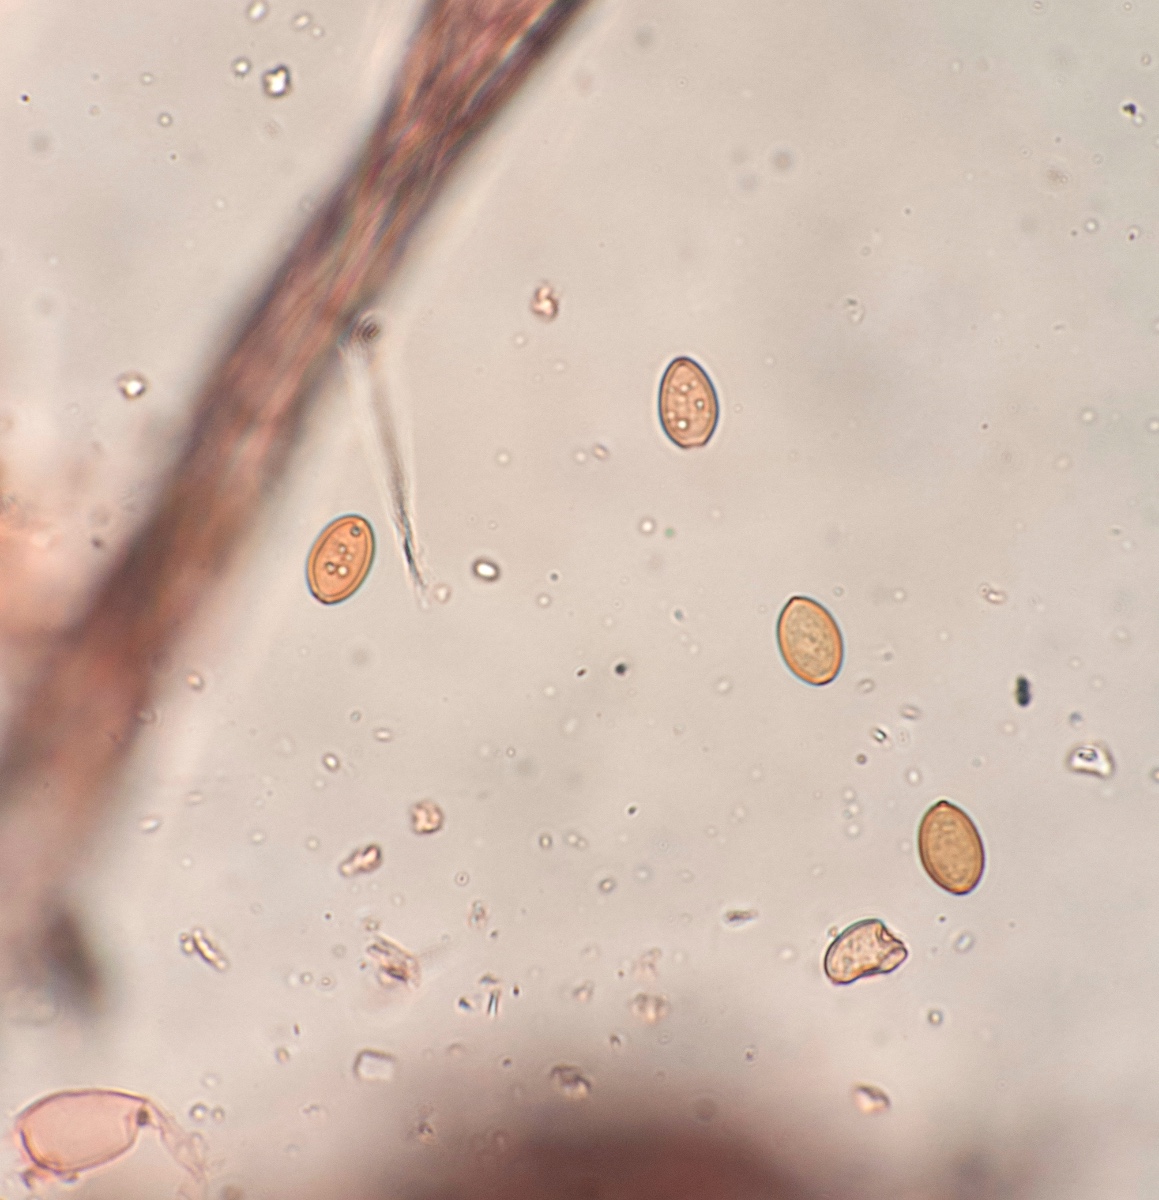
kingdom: Fungi
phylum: Basidiomycota
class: Agaricomycetes
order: Agaricales
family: Strophariaceae
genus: Agrocybe
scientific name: Agrocybe ochracea
